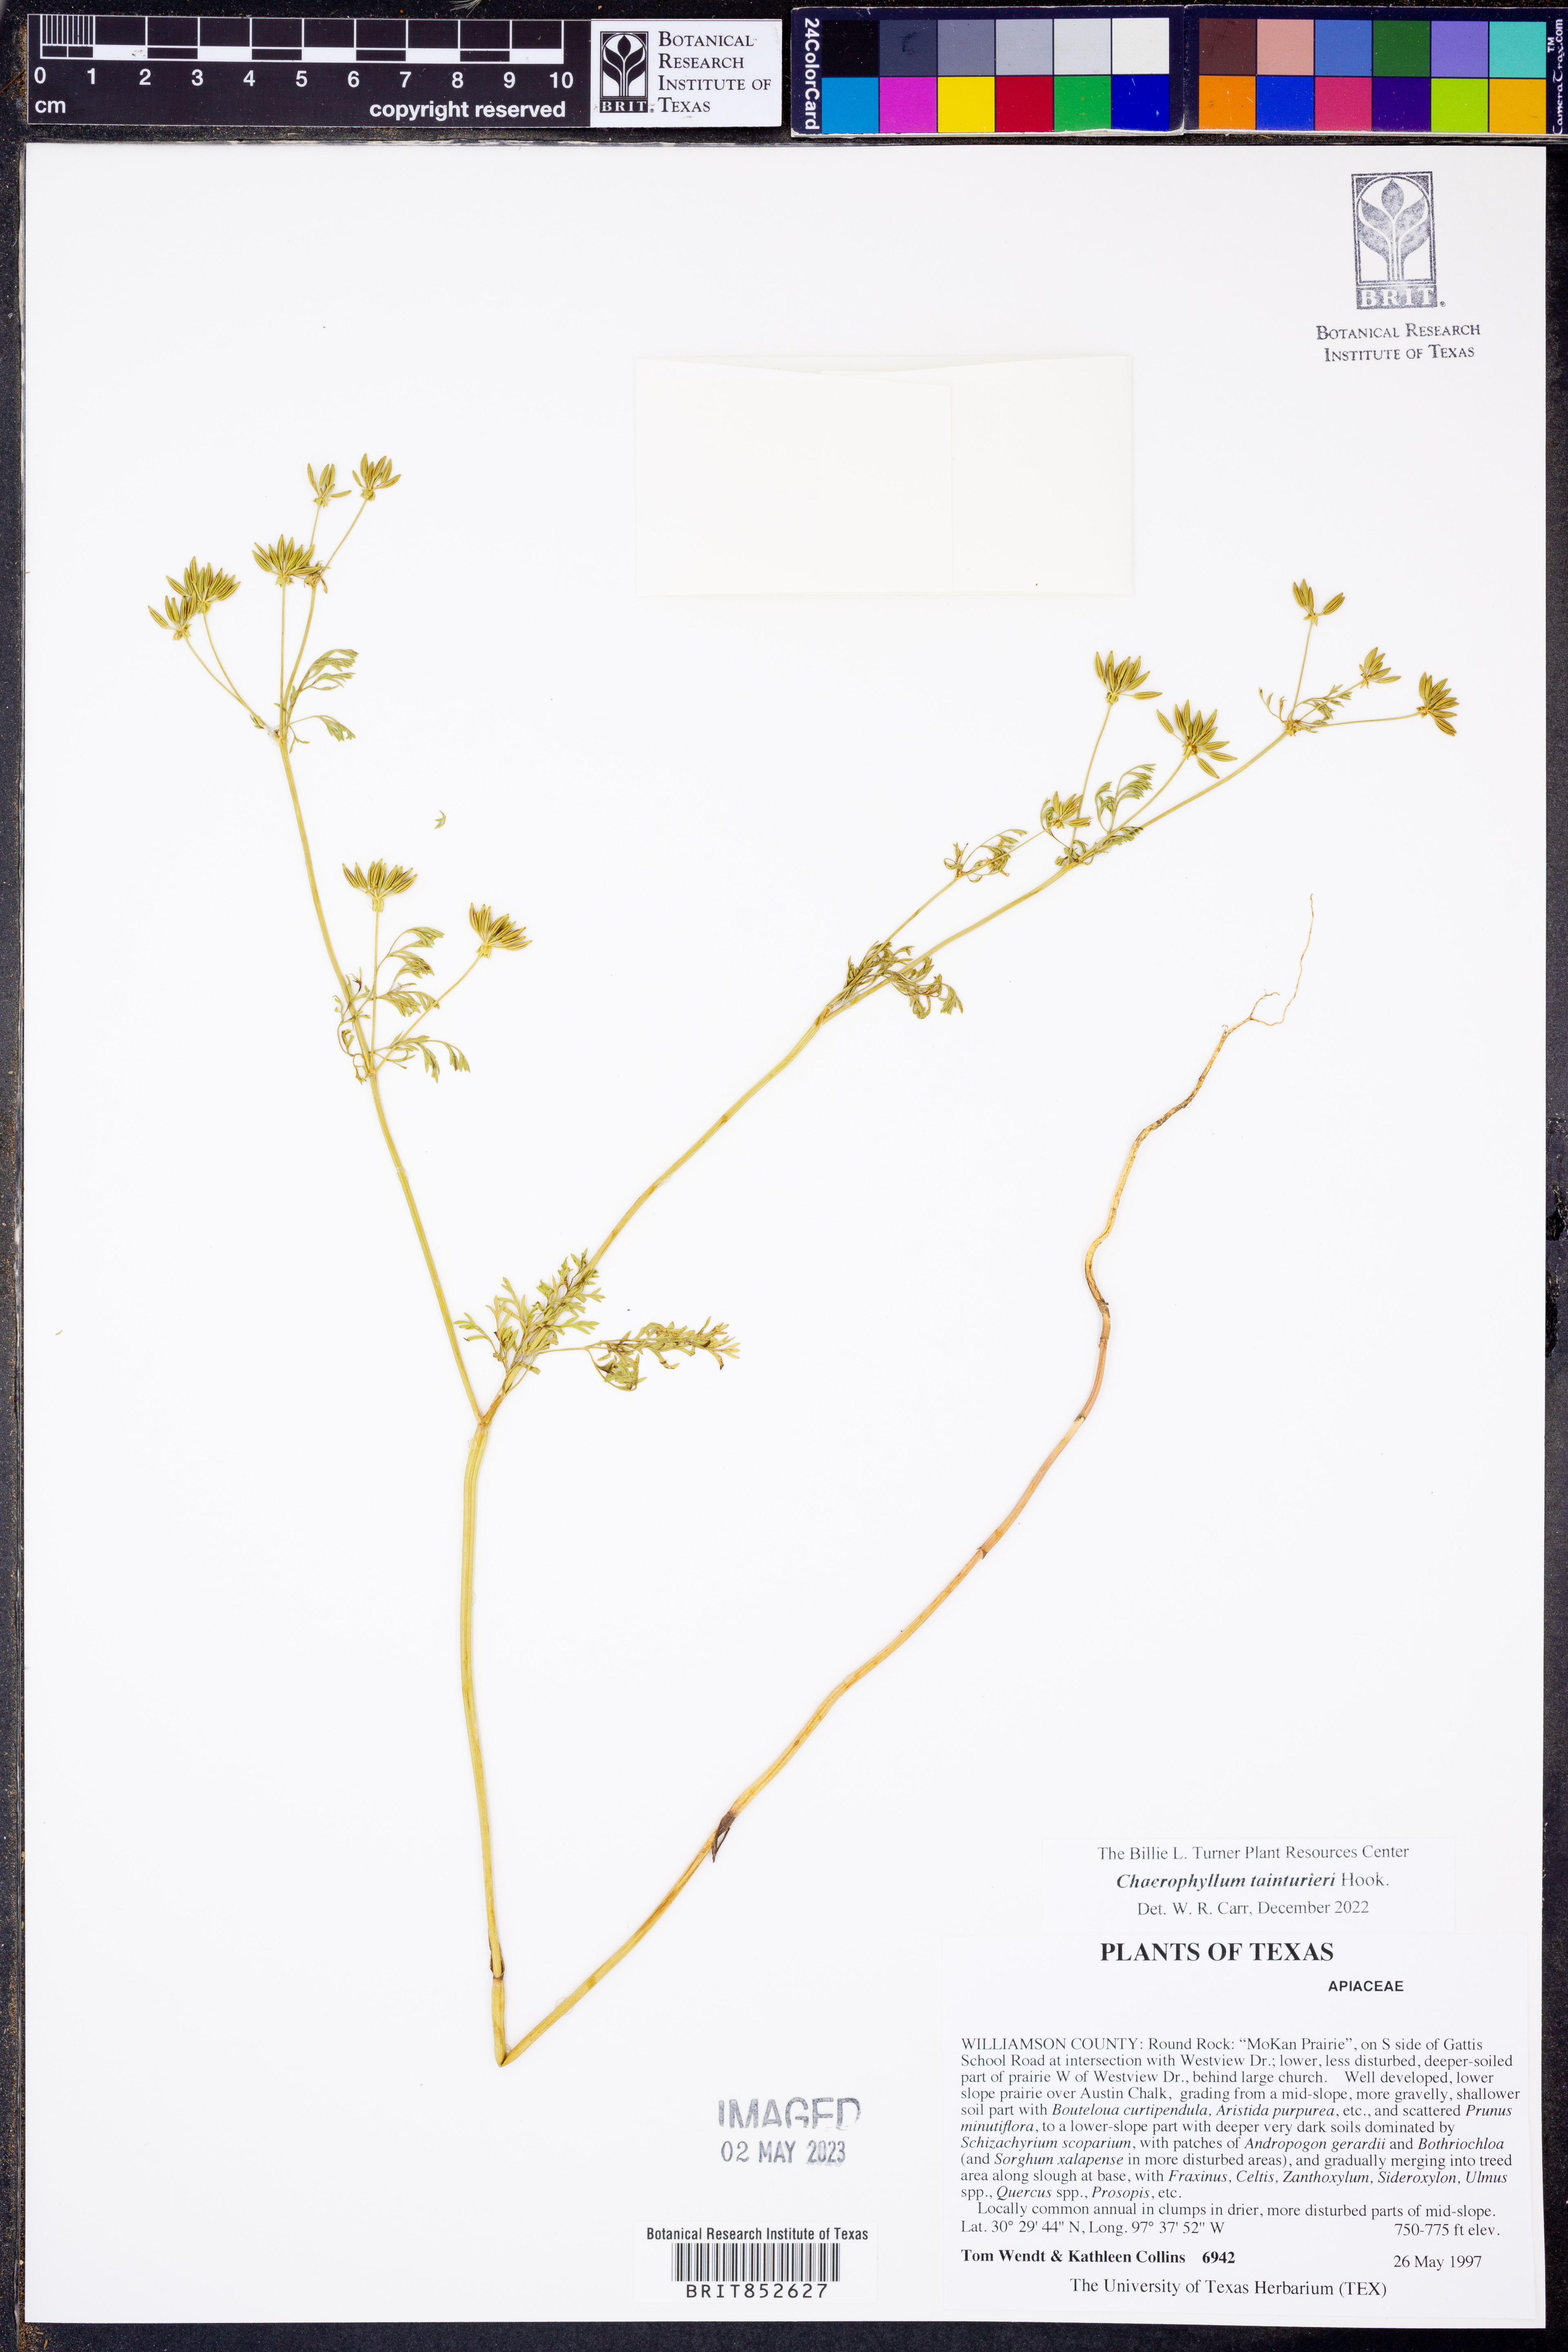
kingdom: Plantae
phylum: Tracheophyta
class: Magnoliopsida
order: Apiales
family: Apiaceae
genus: Chaerophyllum
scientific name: Chaerophyllum tainturieri
